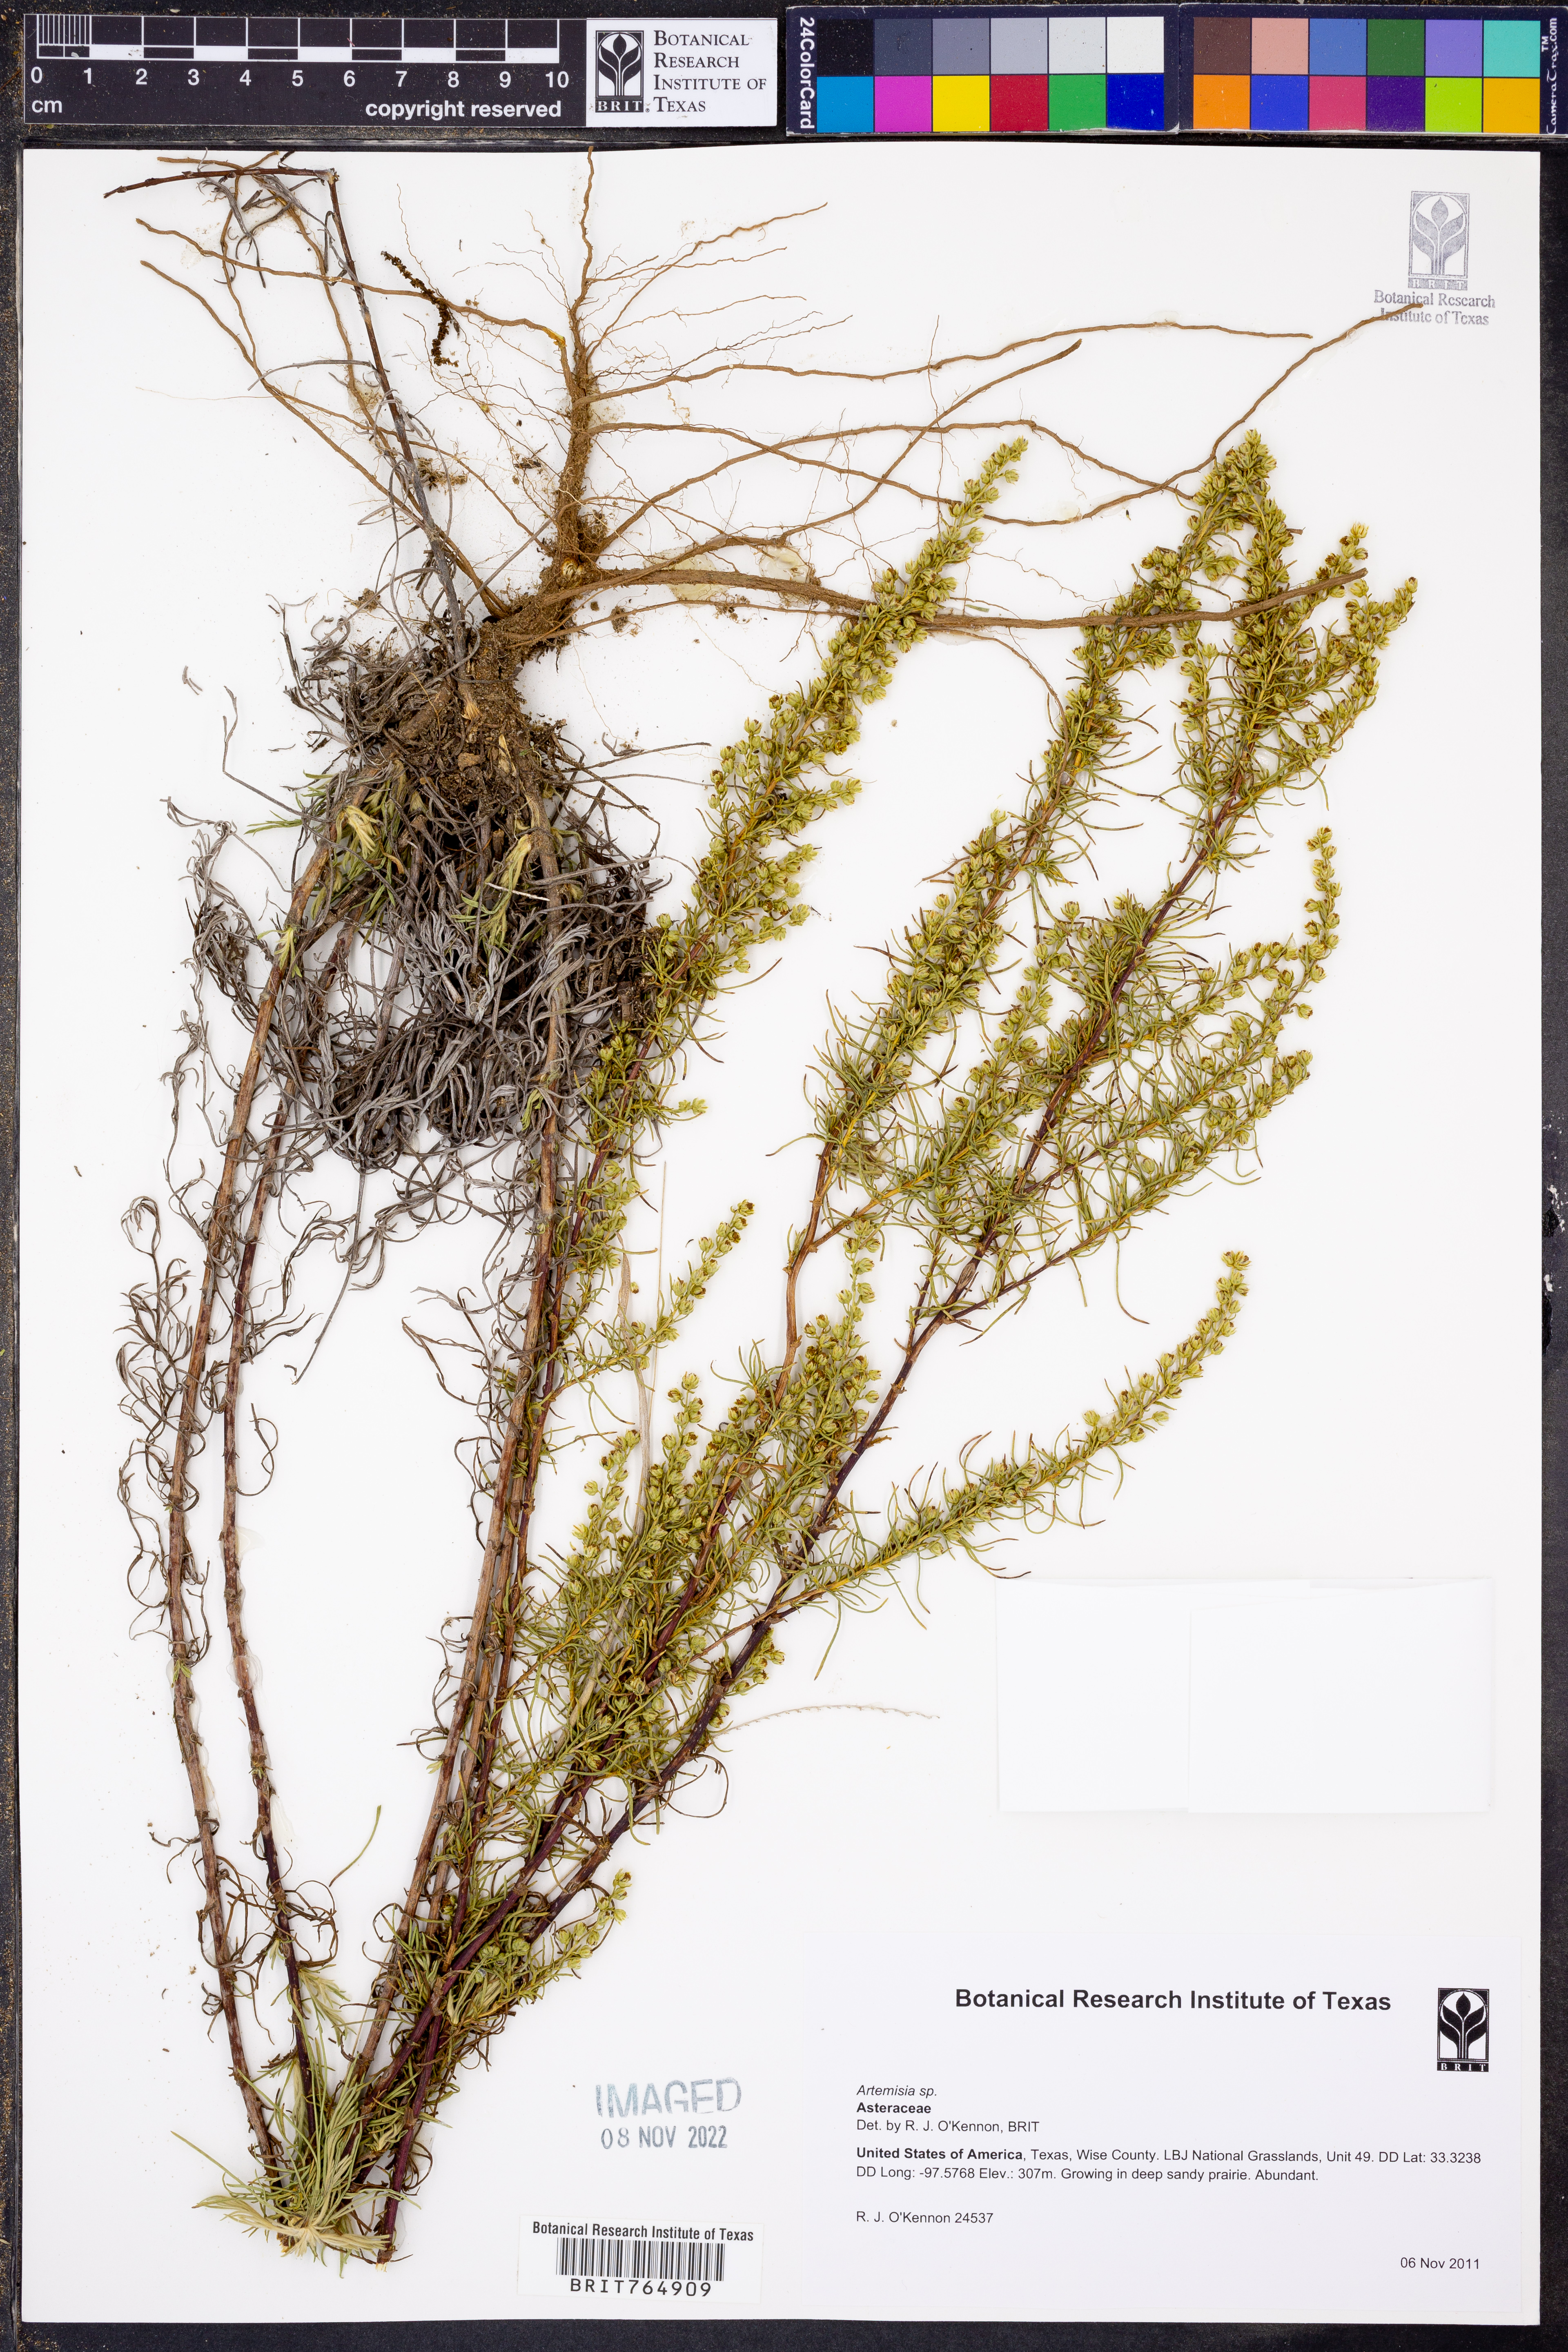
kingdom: Plantae
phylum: Tracheophyta
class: Magnoliopsida
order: Asterales
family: Asteraceae
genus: Artemisia
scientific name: Artemisia
